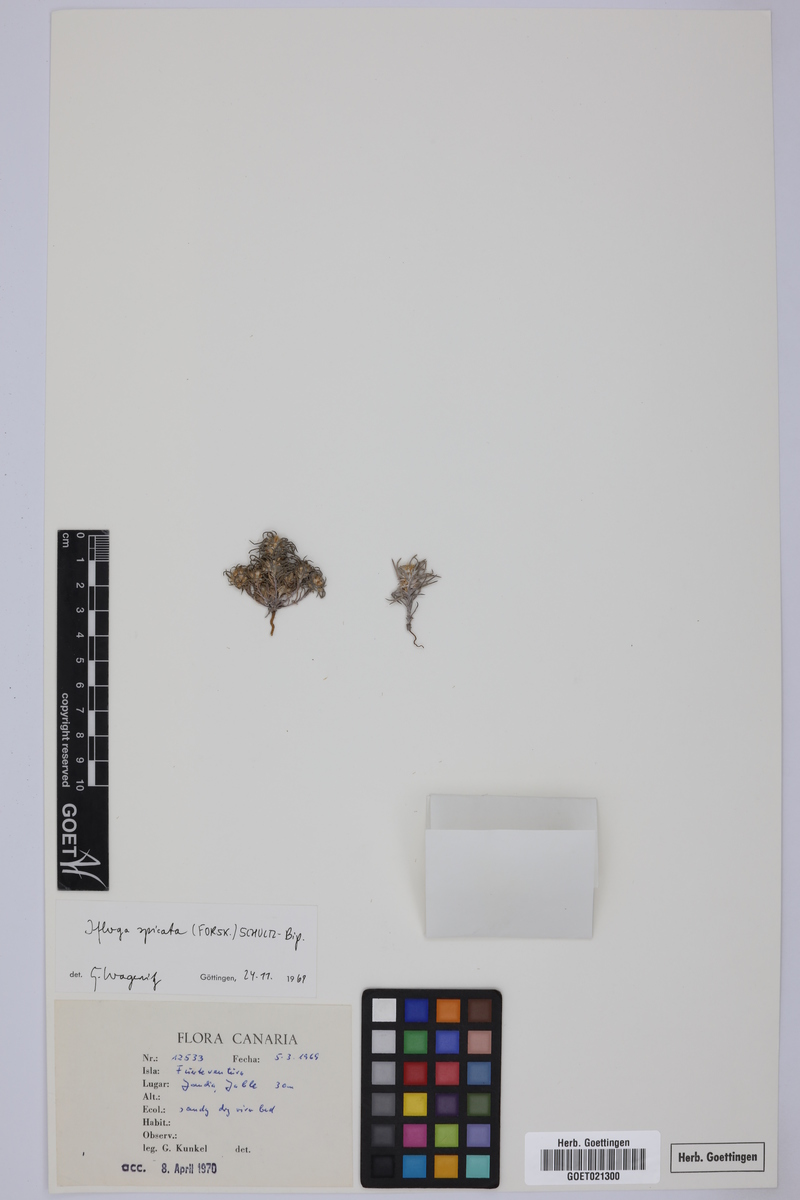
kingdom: Plantae
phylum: Tracheophyta
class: Magnoliopsida
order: Asterales
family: Asteraceae
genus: Ifloga
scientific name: Ifloga spicata
